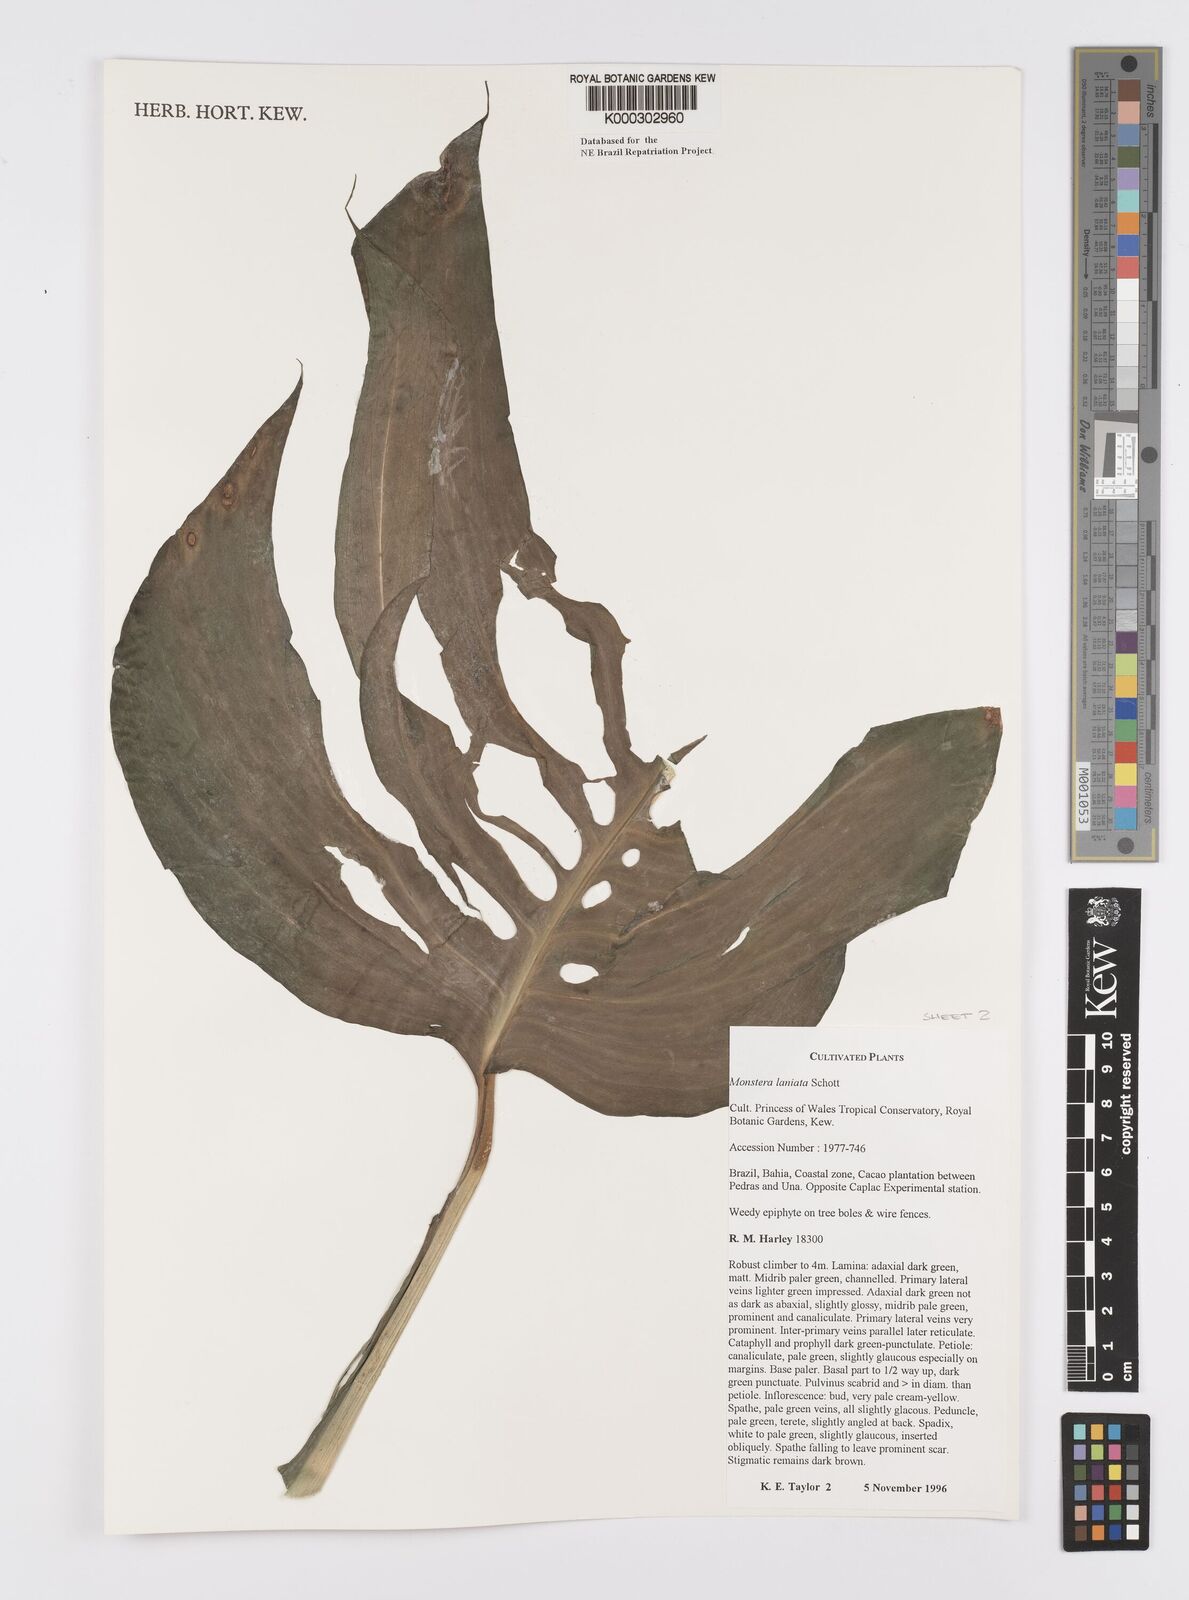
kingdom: Plantae
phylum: Tracheophyta
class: Liliopsida
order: Alismatales
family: Araceae
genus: Monstera
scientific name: Monstera adansonii
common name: Tarovine
